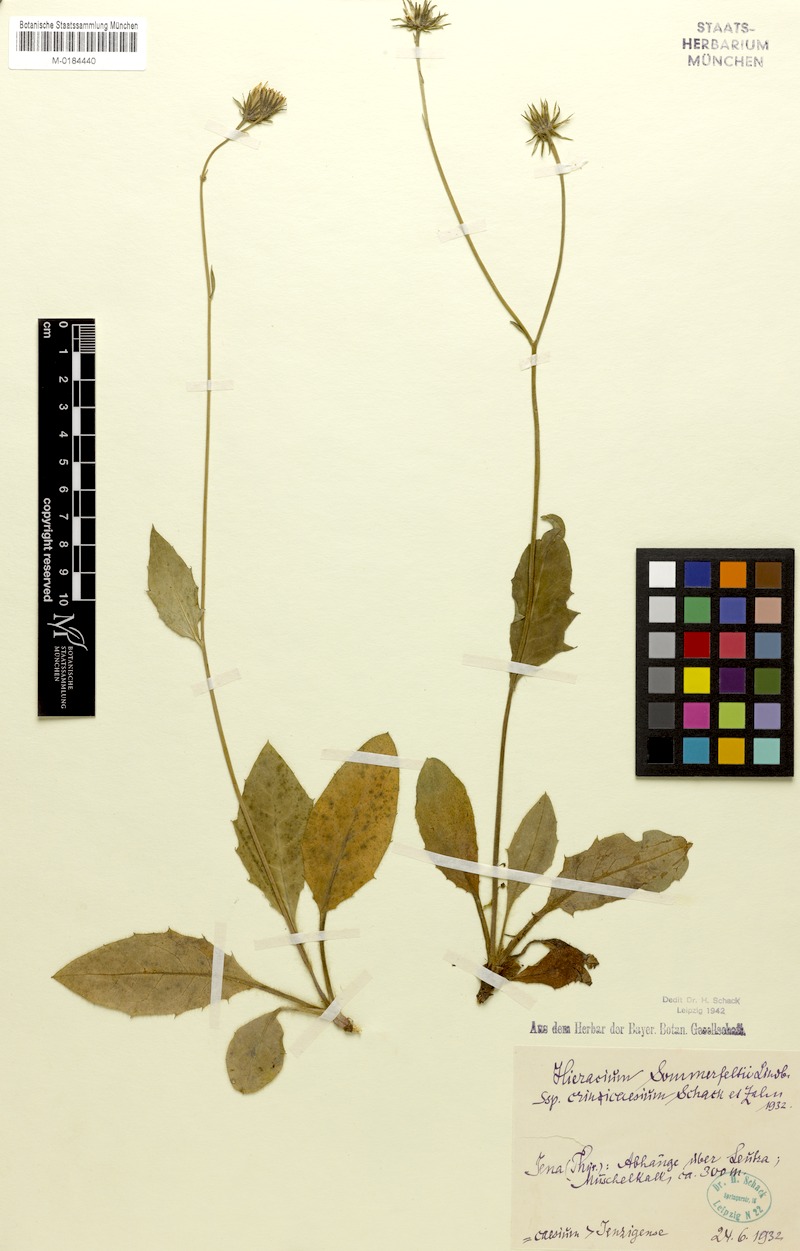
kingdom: Plantae
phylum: Tracheophyta
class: Magnoliopsida
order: Asterales
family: Asteraceae
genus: Hieracium
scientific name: Hieracium sommerfeltii
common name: Sommerfelt's hawkweed
